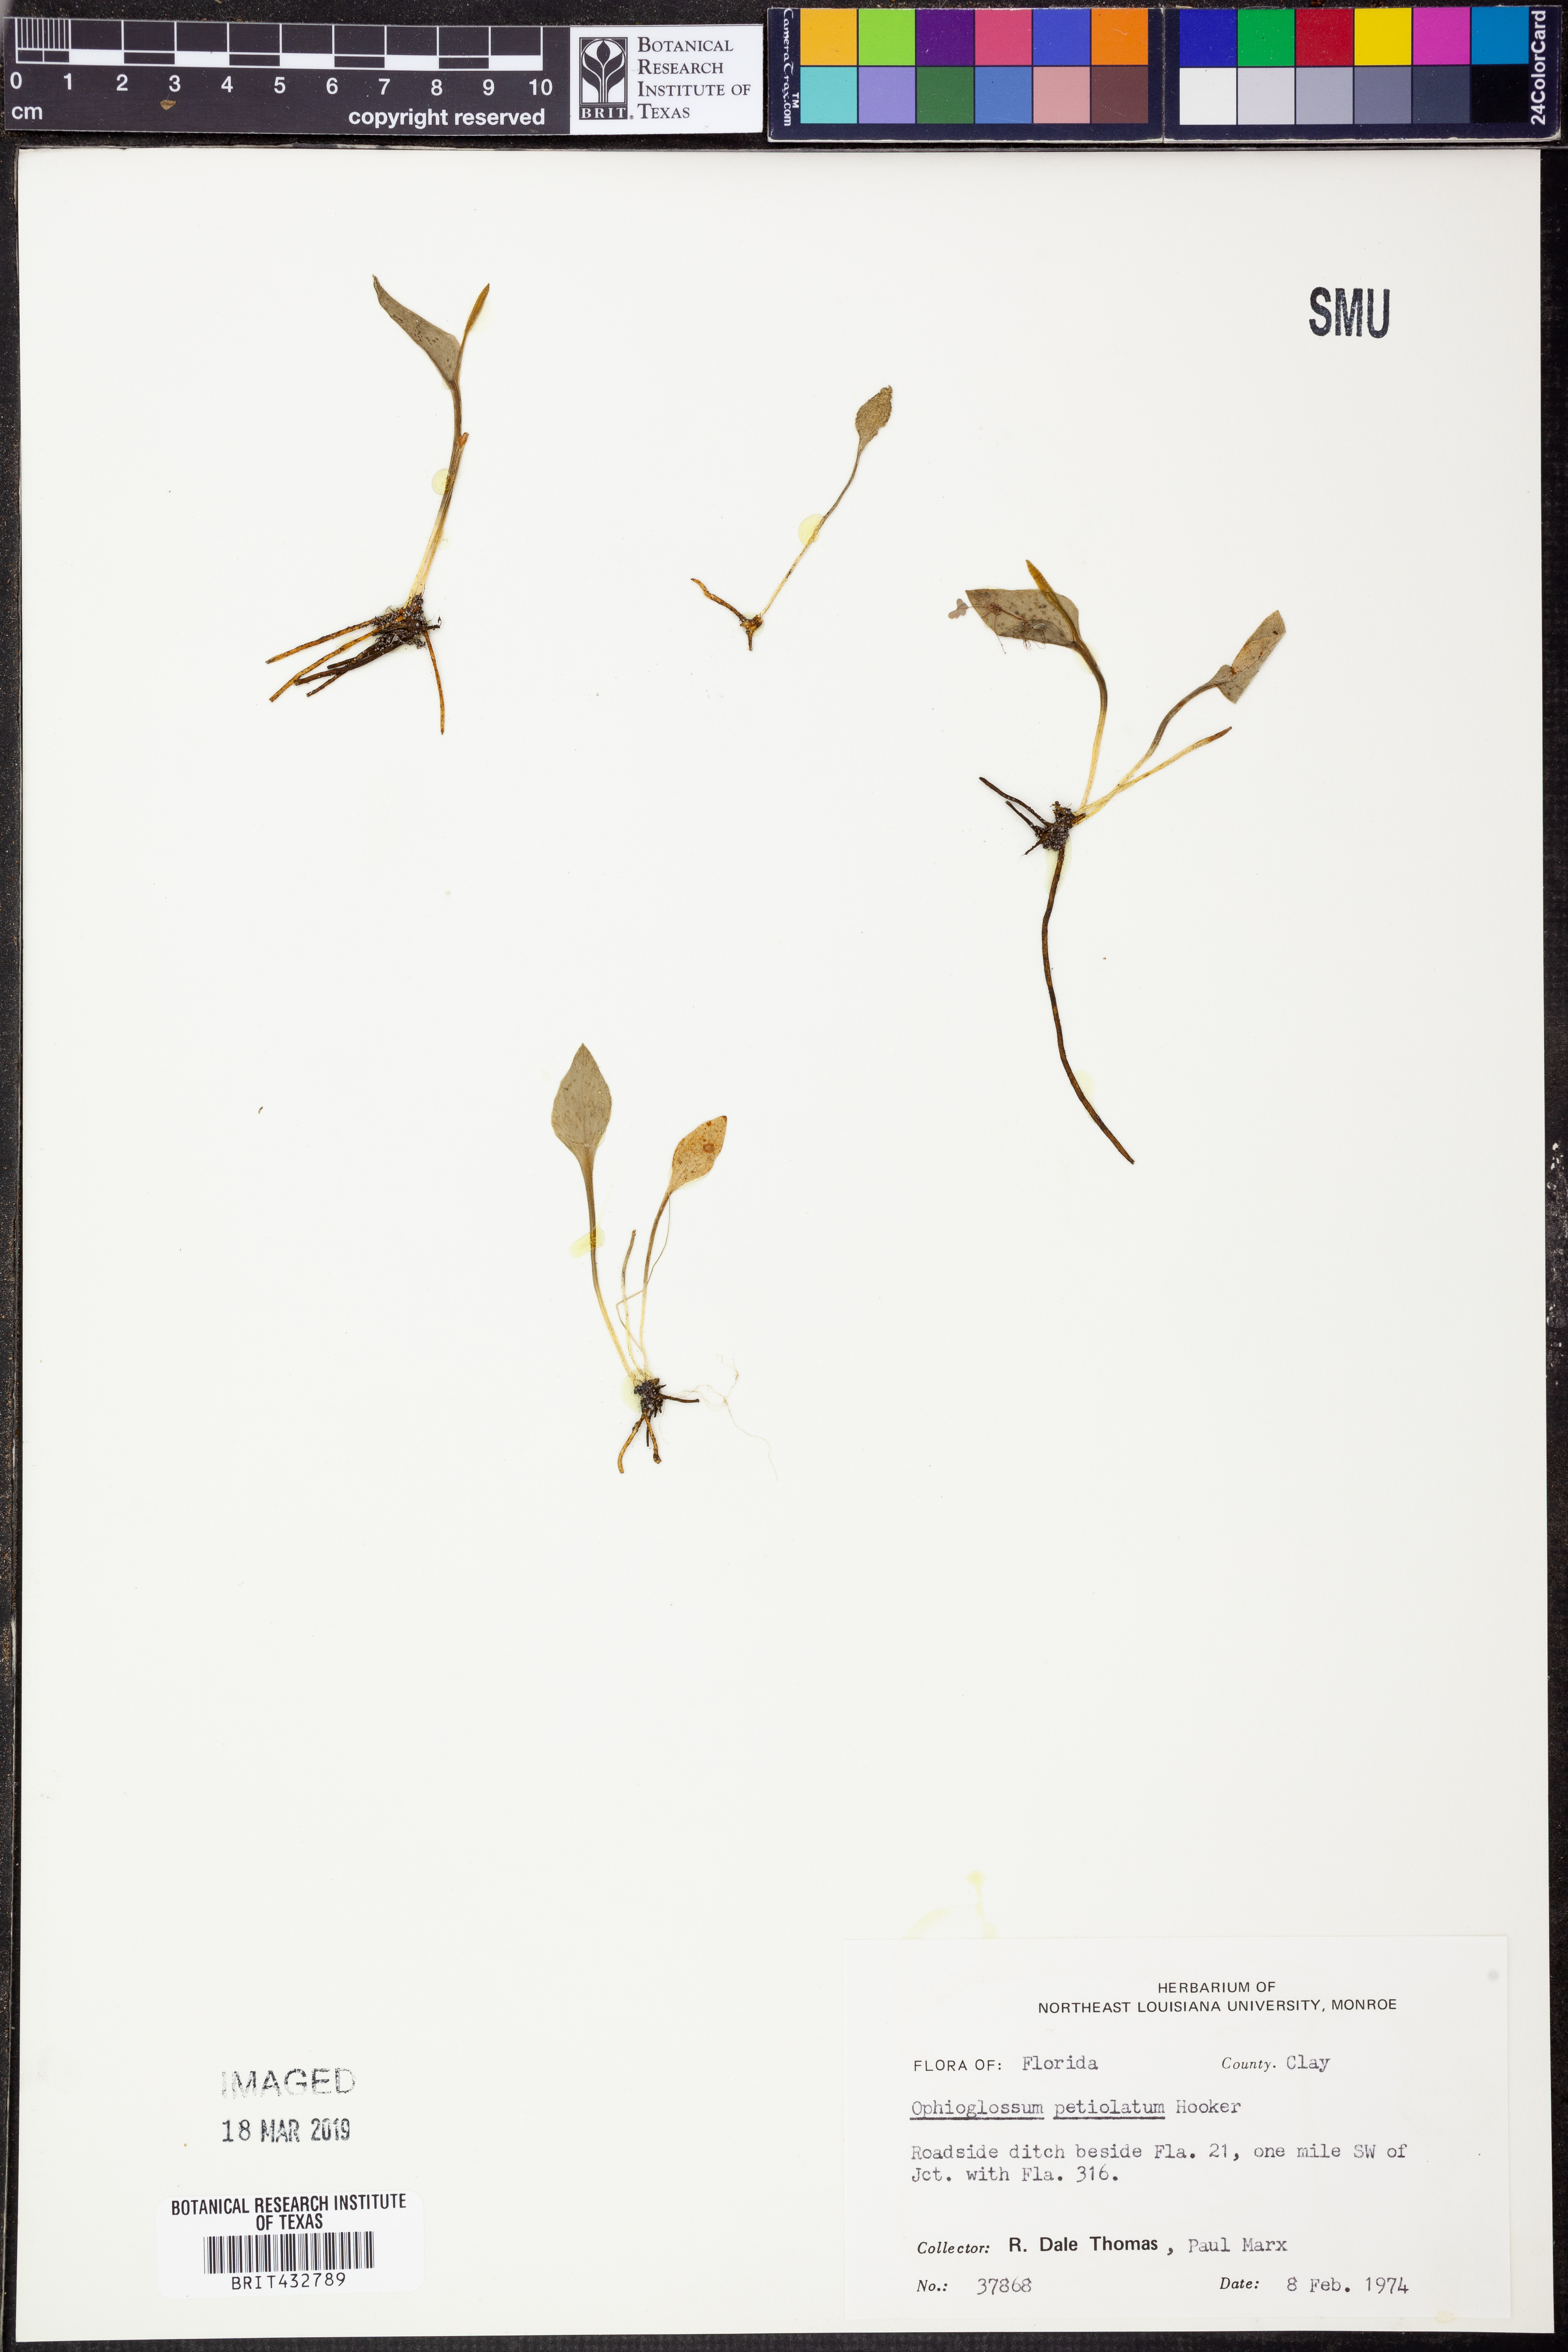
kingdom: Plantae
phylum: Tracheophyta
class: Polypodiopsida
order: Ophioglossales
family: Ophioglossaceae
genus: Ophioglossum
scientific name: Ophioglossum petiolatum
